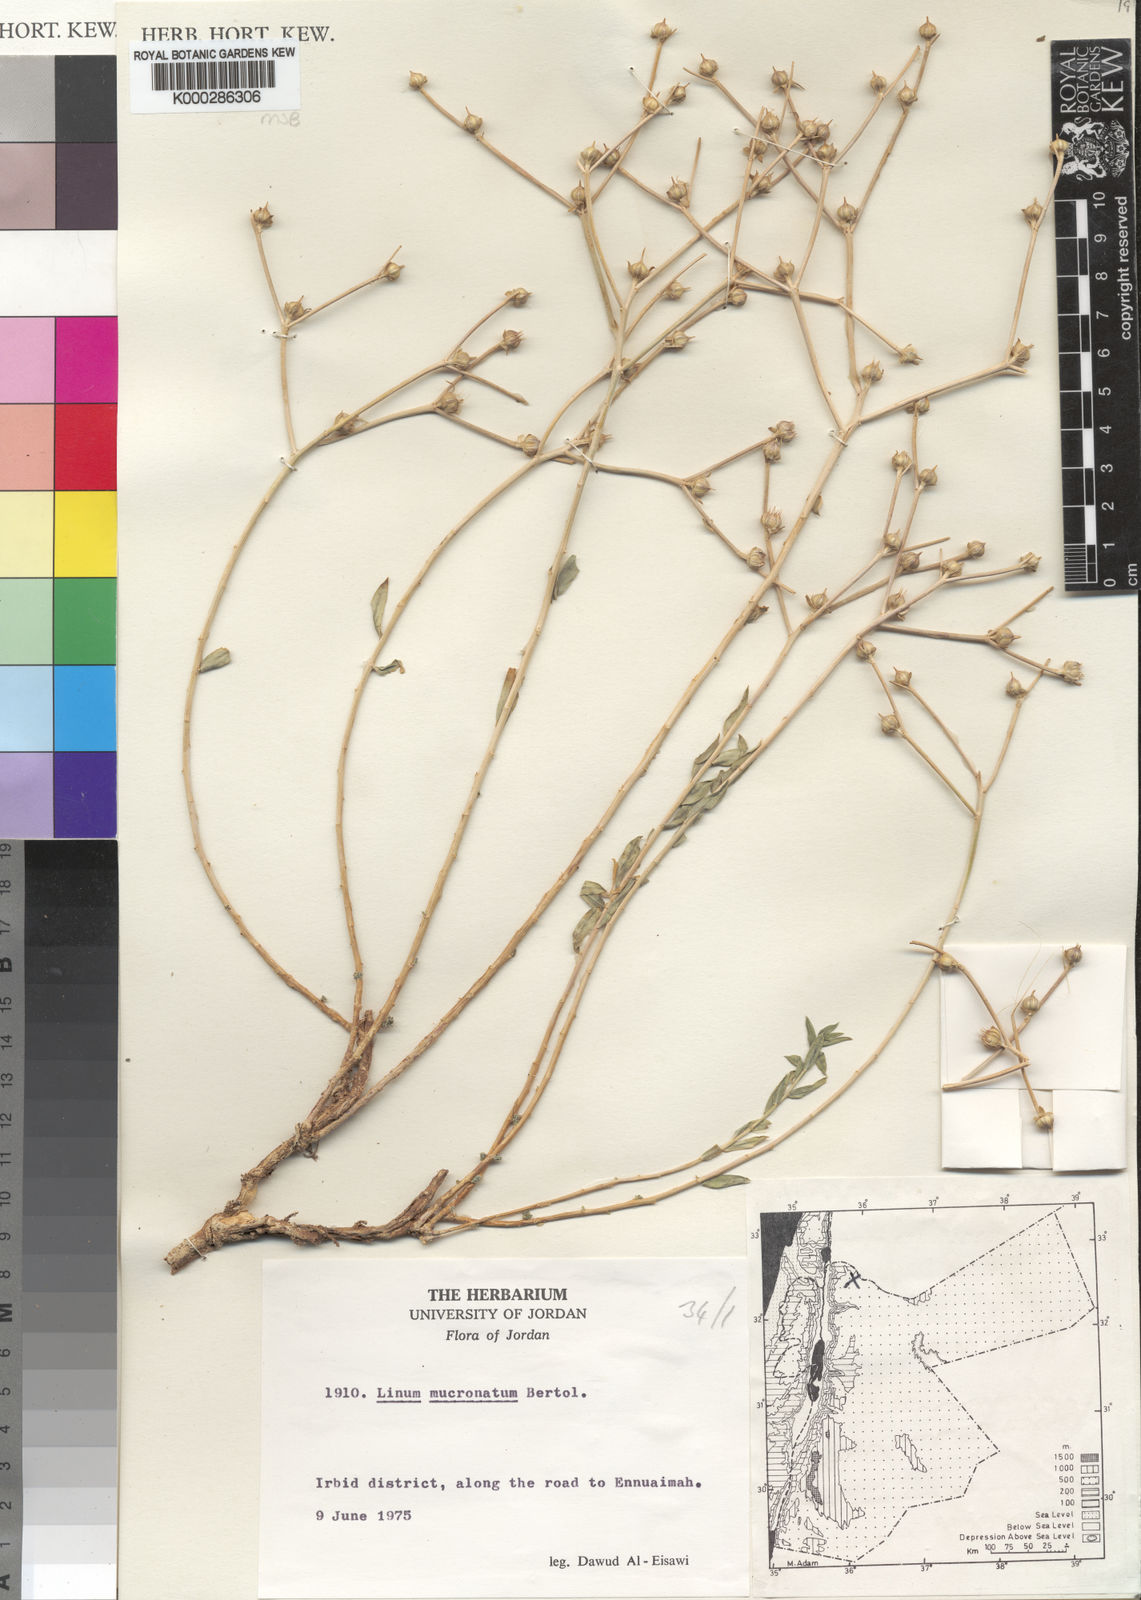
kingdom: Plantae
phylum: Tracheophyta
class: Magnoliopsida
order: Malpighiales
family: Linaceae
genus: Linum
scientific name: Linum mucronatum
